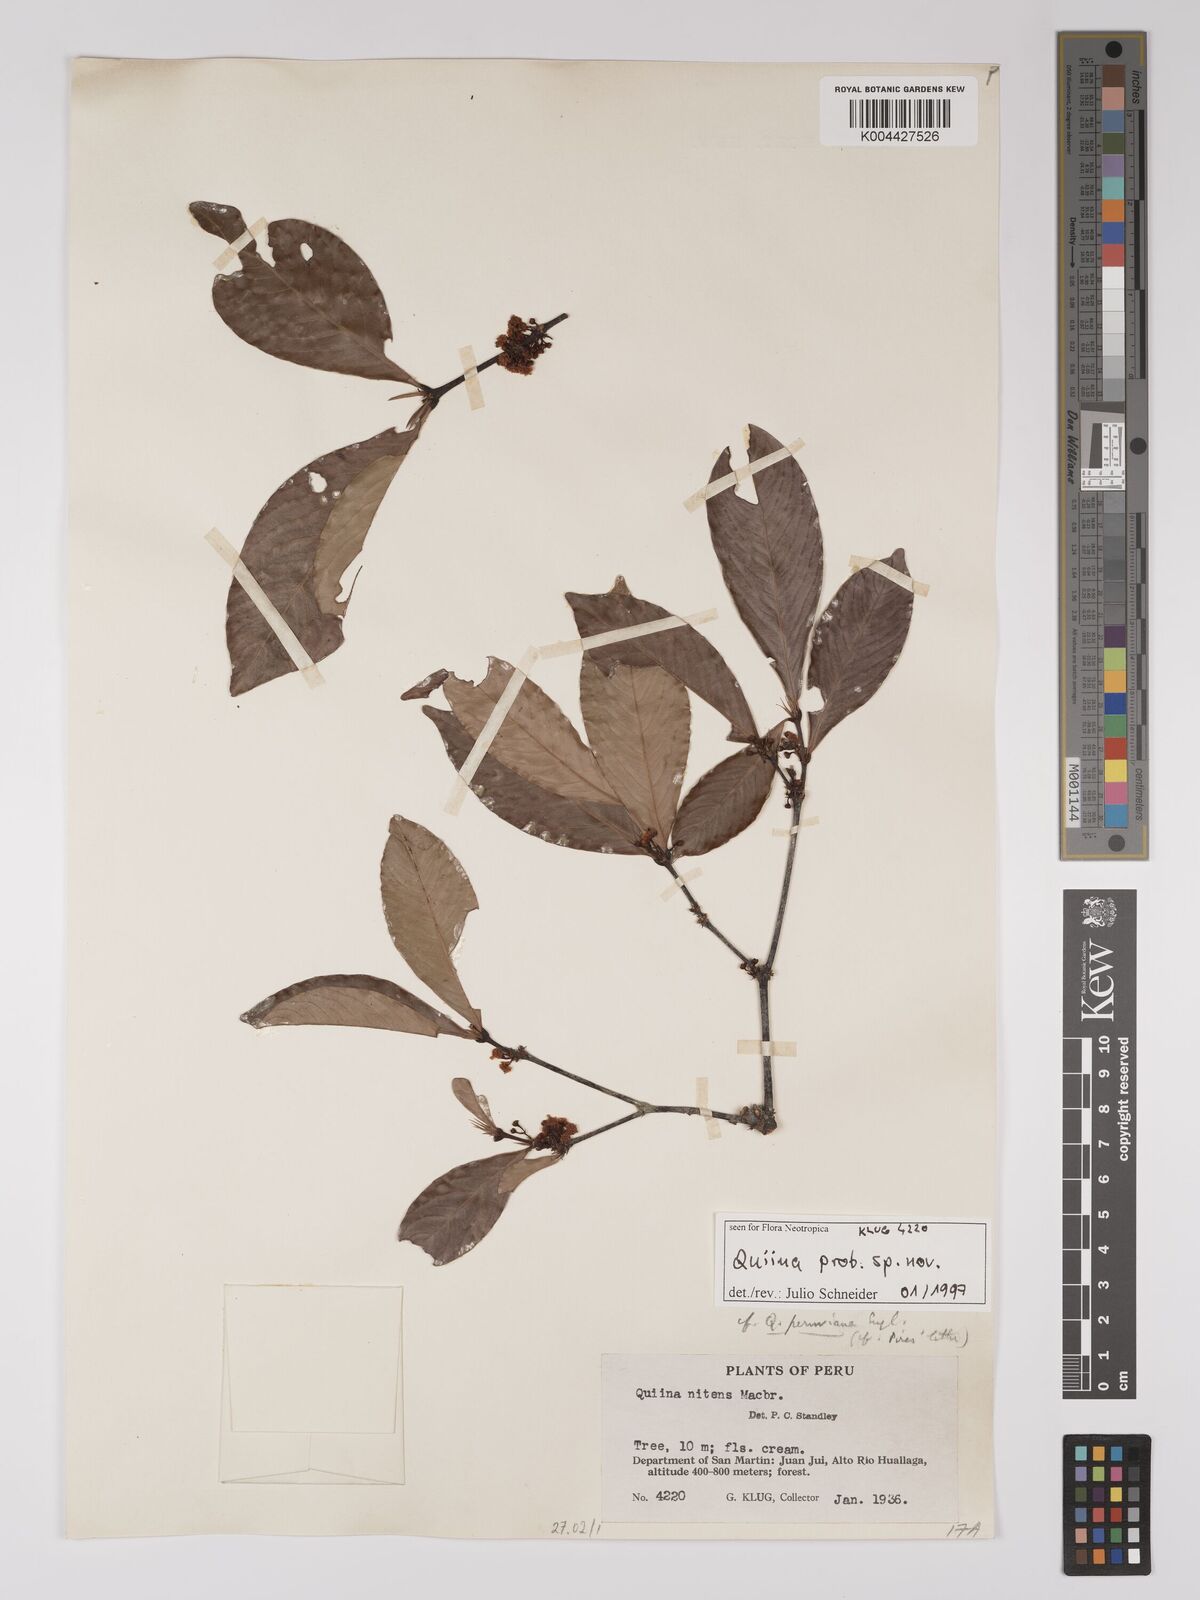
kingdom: Plantae
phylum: Tracheophyta
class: Magnoliopsida
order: Malpighiales
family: Ochnaceae
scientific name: Ochnaceae
